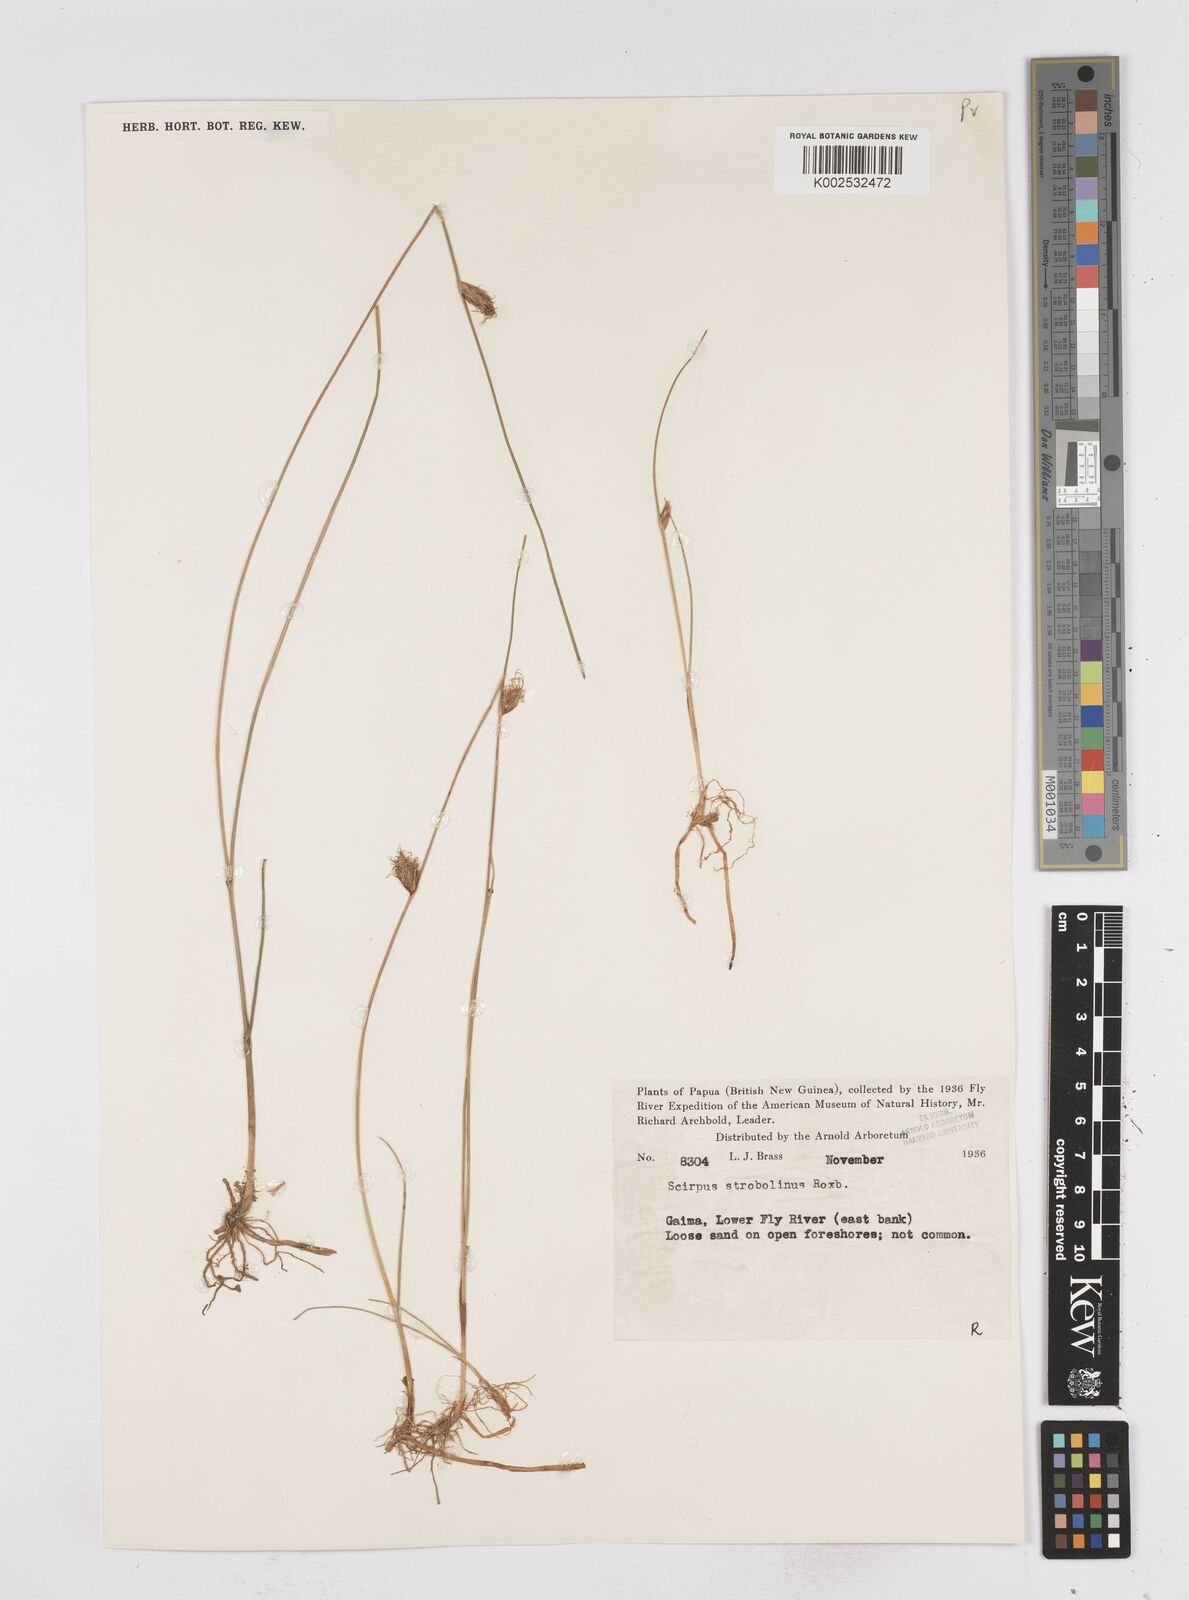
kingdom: Plantae
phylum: Tracheophyta
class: Liliopsida
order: Poales
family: Cyperaceae
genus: Bolboschoenus
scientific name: Bolboschoenus maritimus
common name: Sea club-rush
